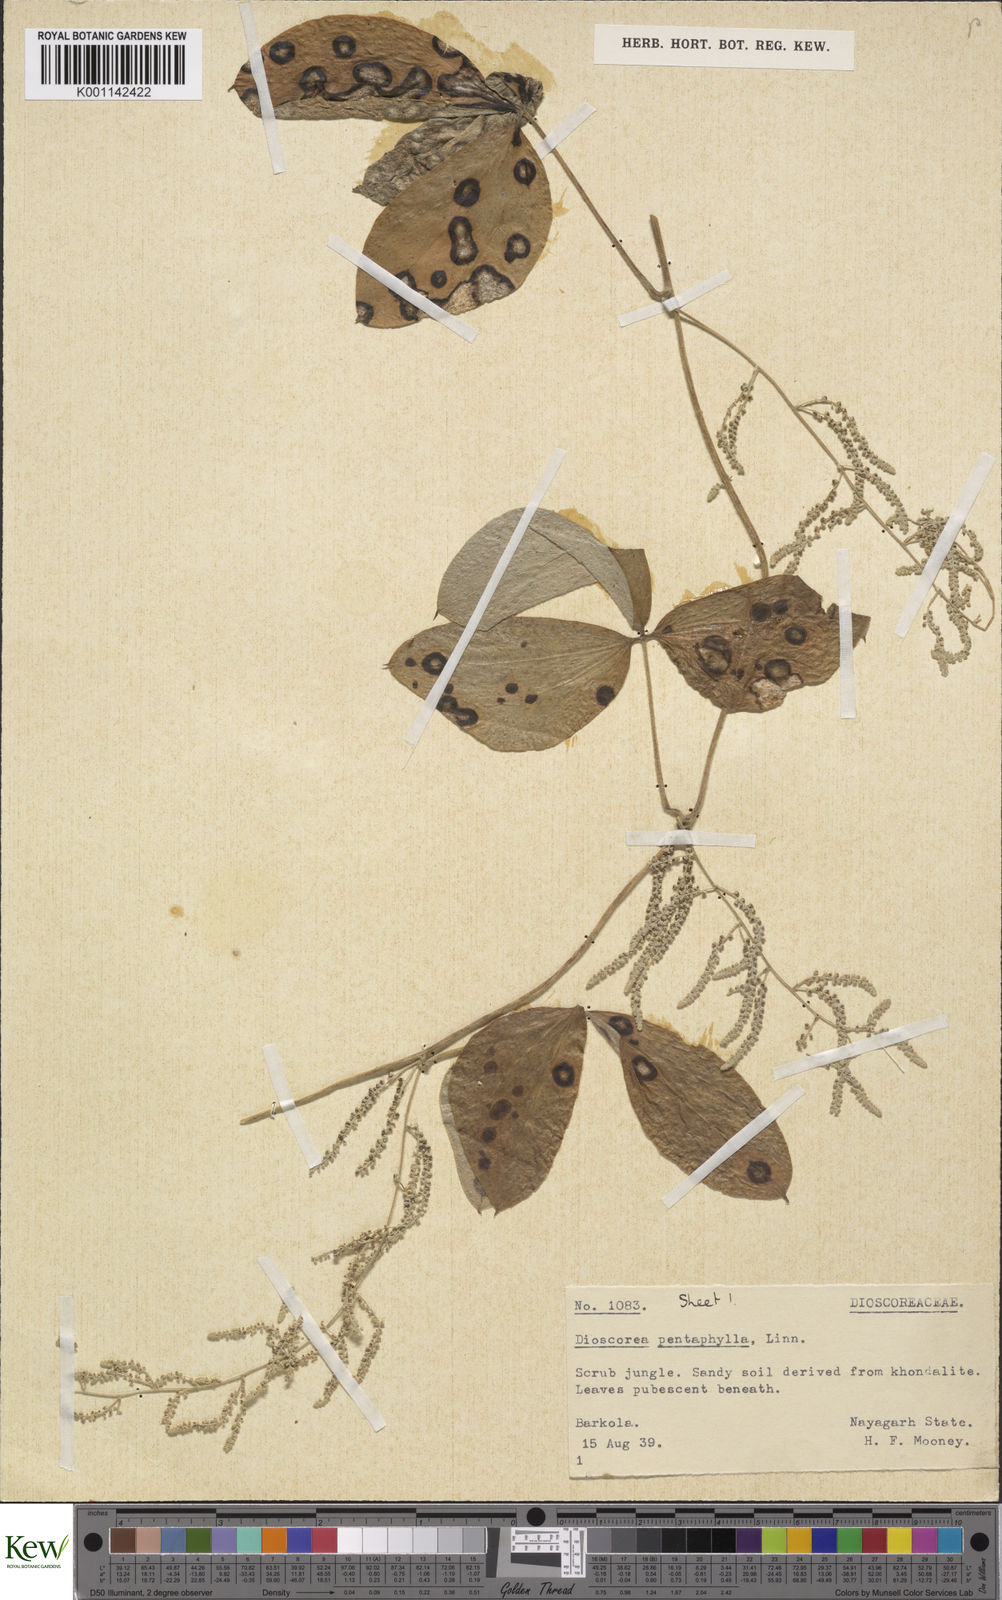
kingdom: Plantae
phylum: Tracheophyta
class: Liliopsida
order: Dioscoreales
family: Dioscoreaceae
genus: Dioscorea
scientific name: Dioscorea pentaphylla
